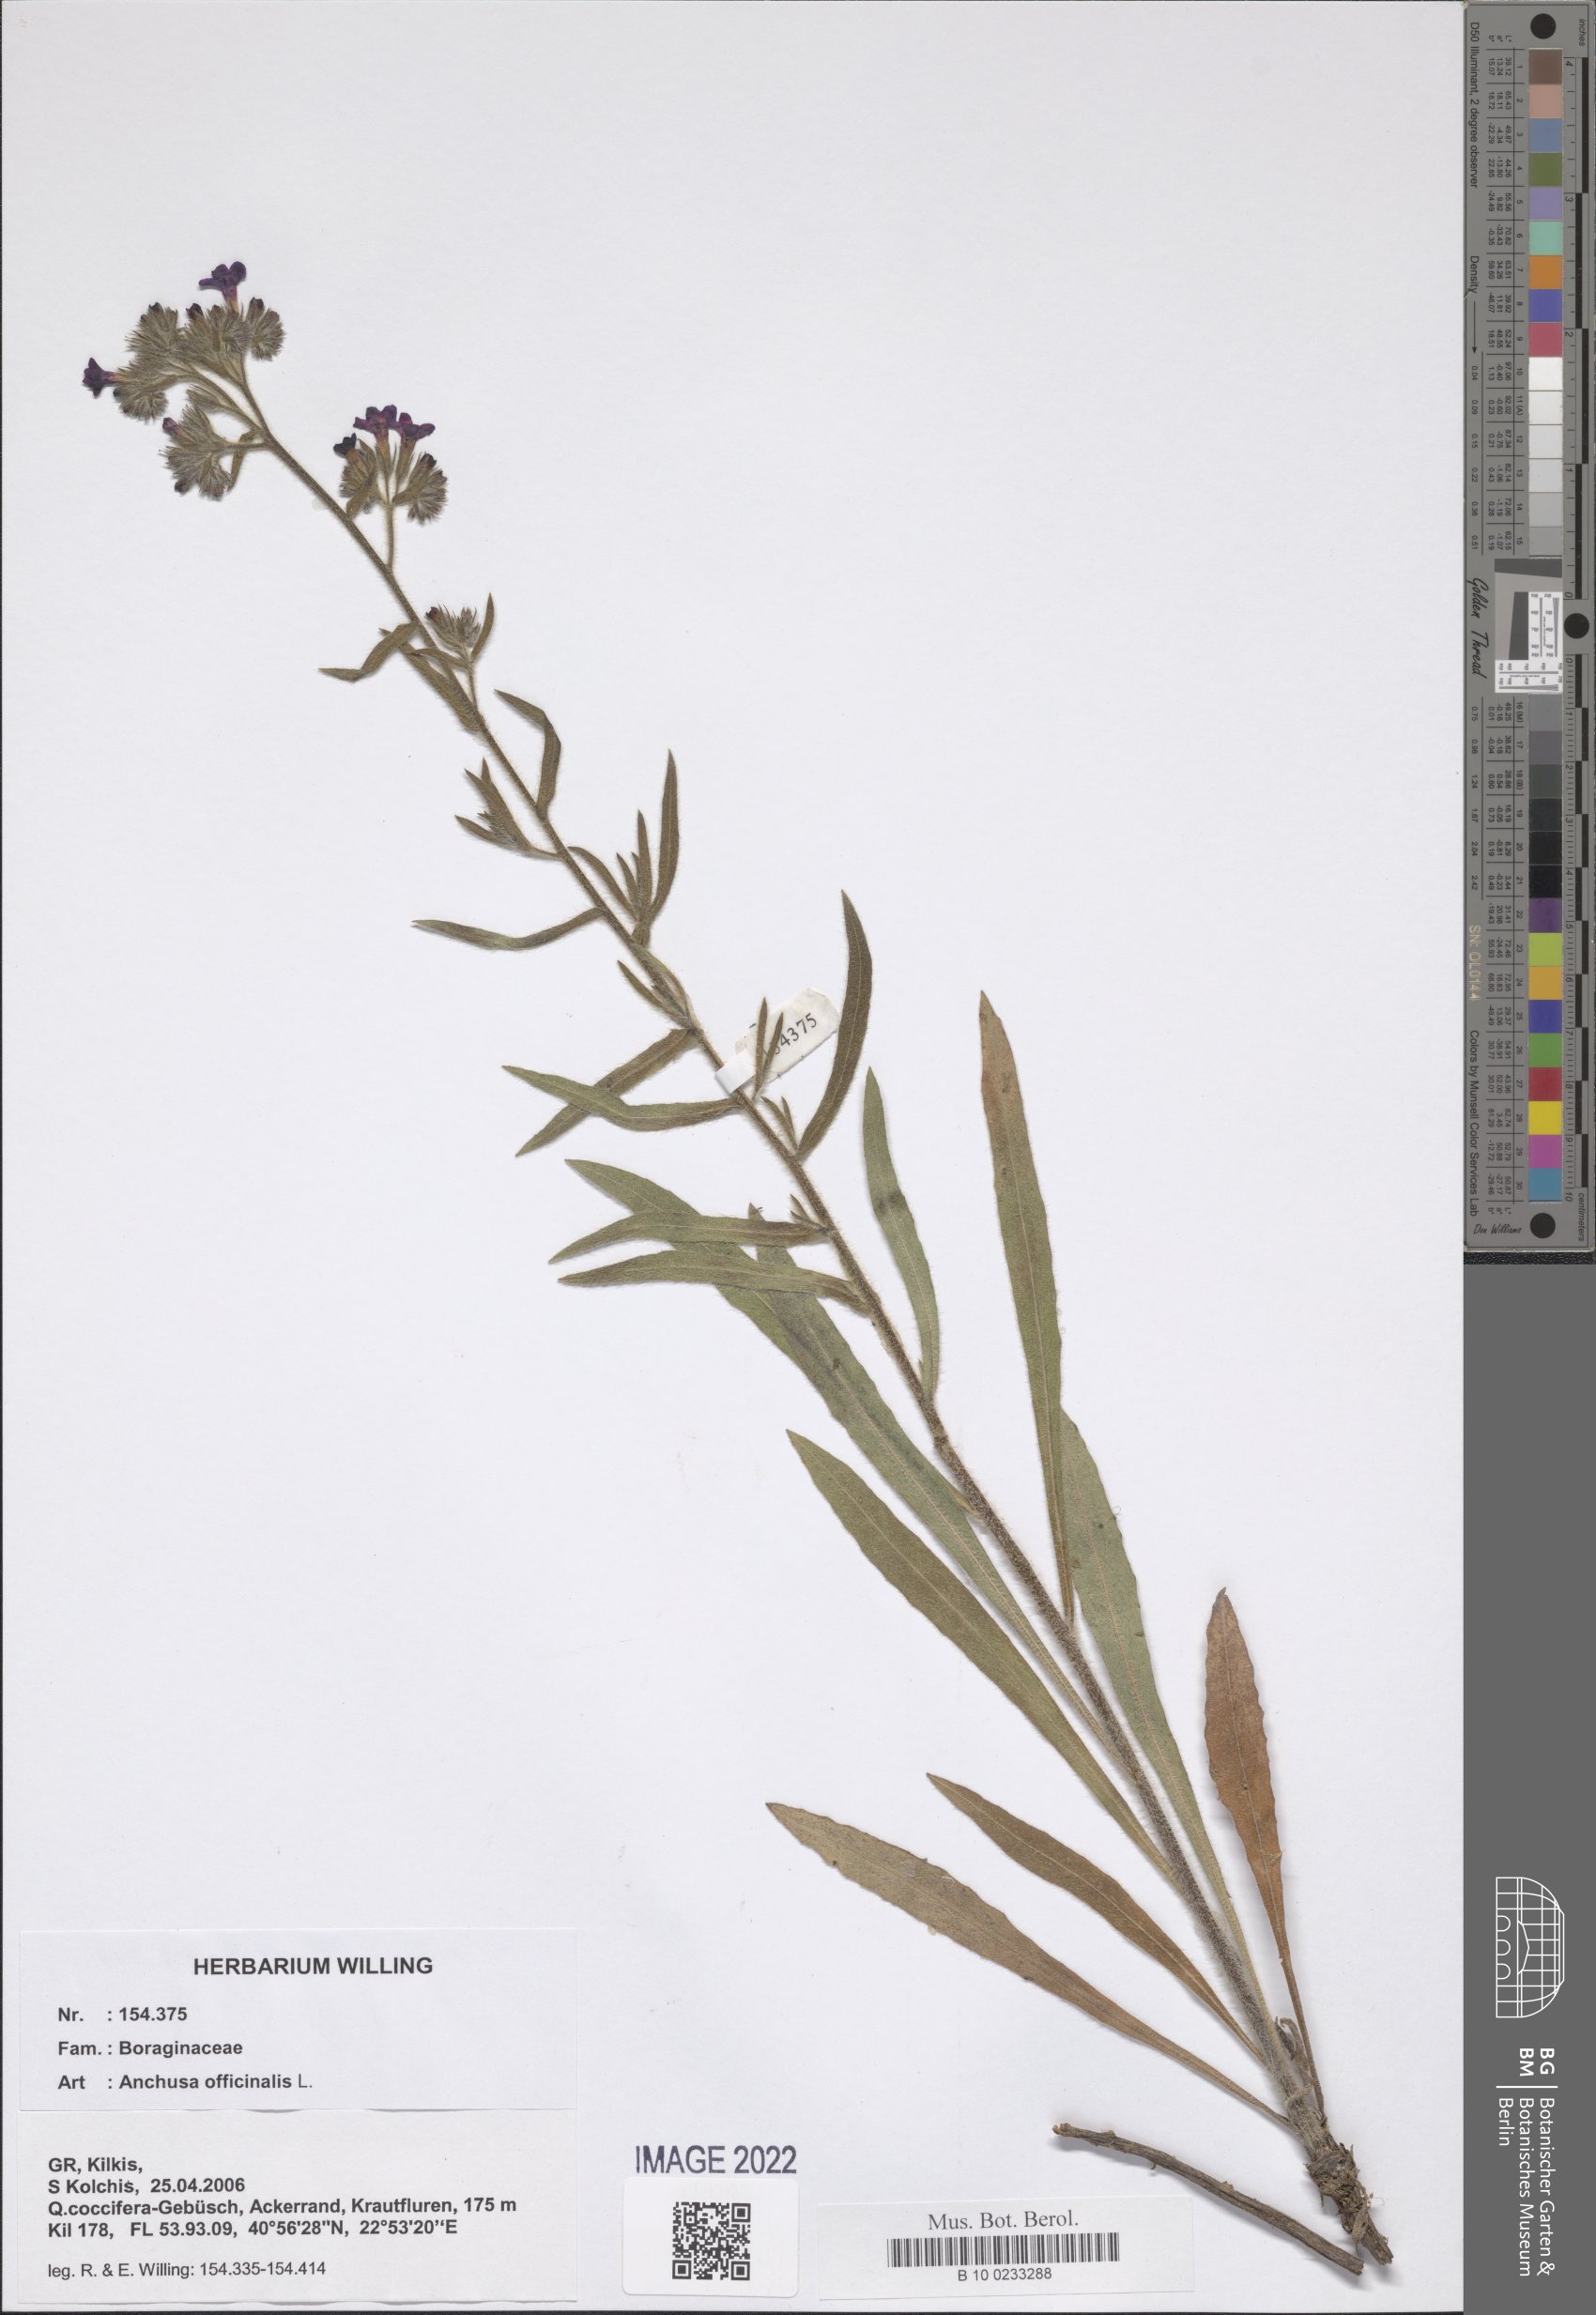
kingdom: Plantae
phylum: Tracheophyta
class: Magnoliopsida
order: Boraginales
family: Boraginaceae
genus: Anchusa
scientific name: Anchusa officinalis
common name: Alkanet
